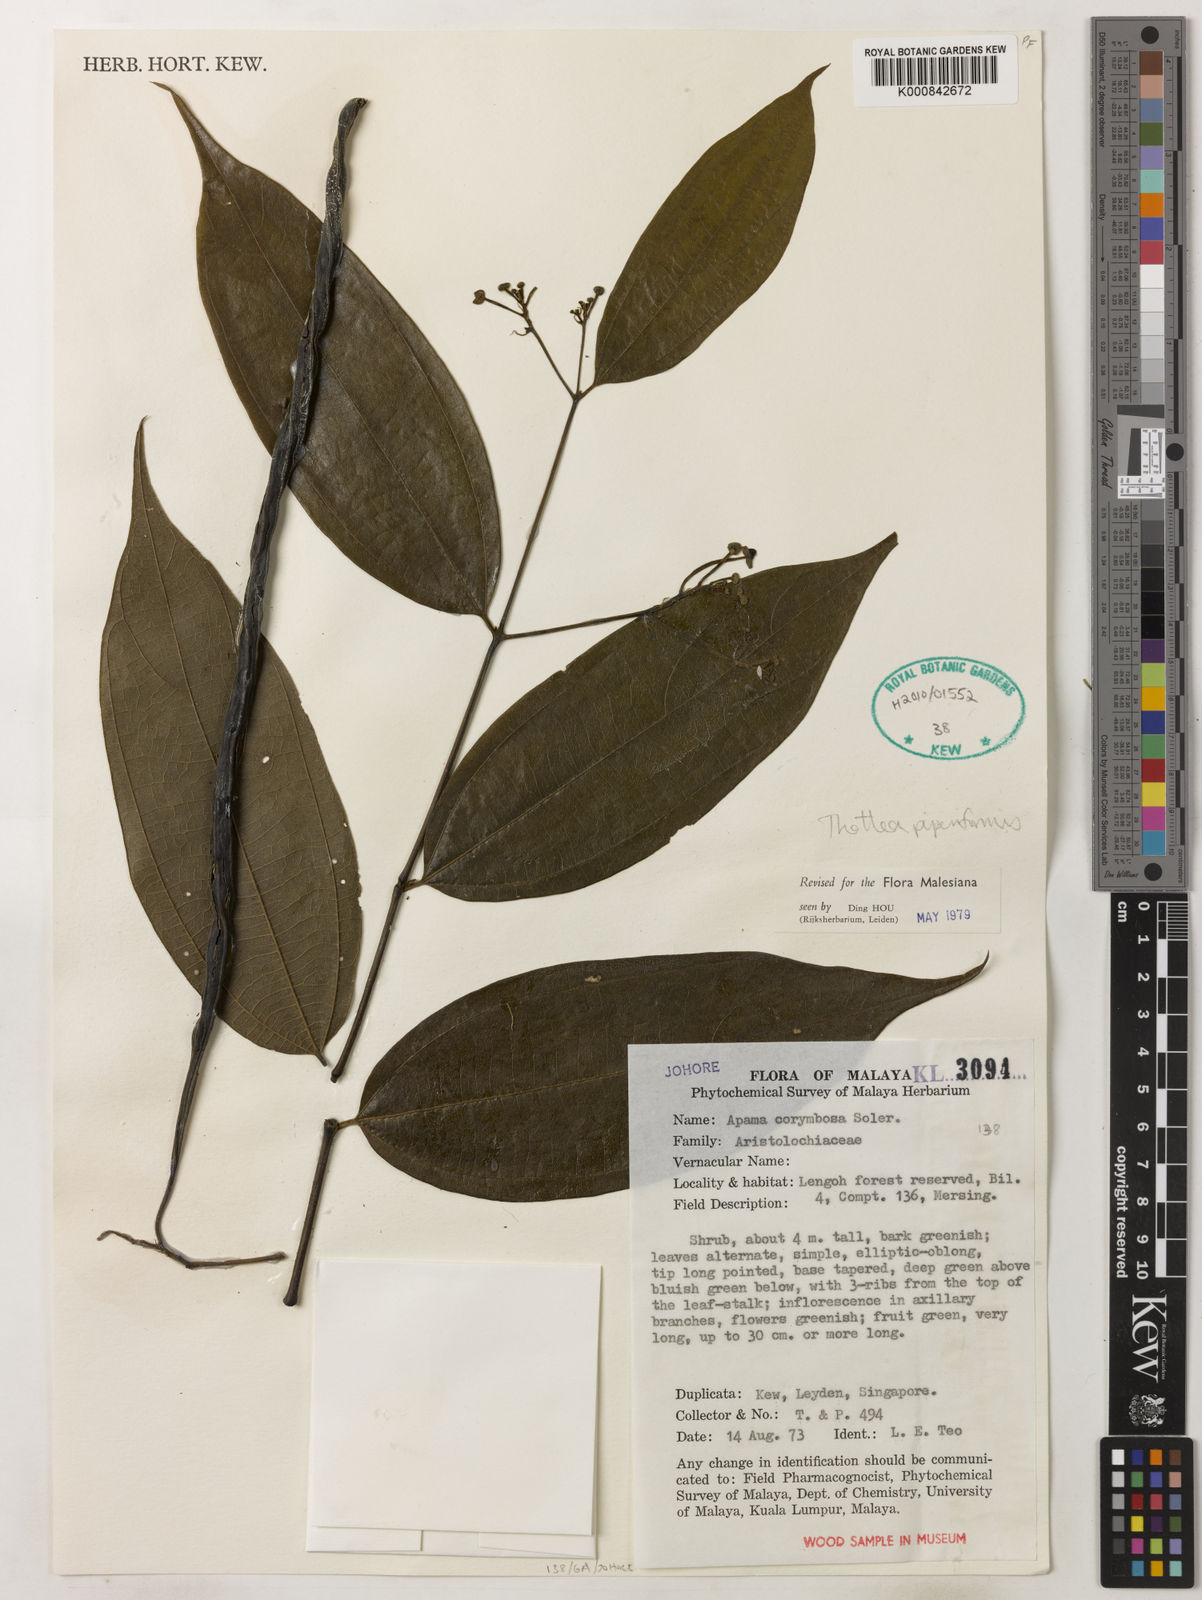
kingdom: Plantae
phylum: Tracheophyta
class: Magnoliopsida
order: Piperales
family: Aristolochiaceae
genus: Thottea
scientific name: Thottea piperiformis
